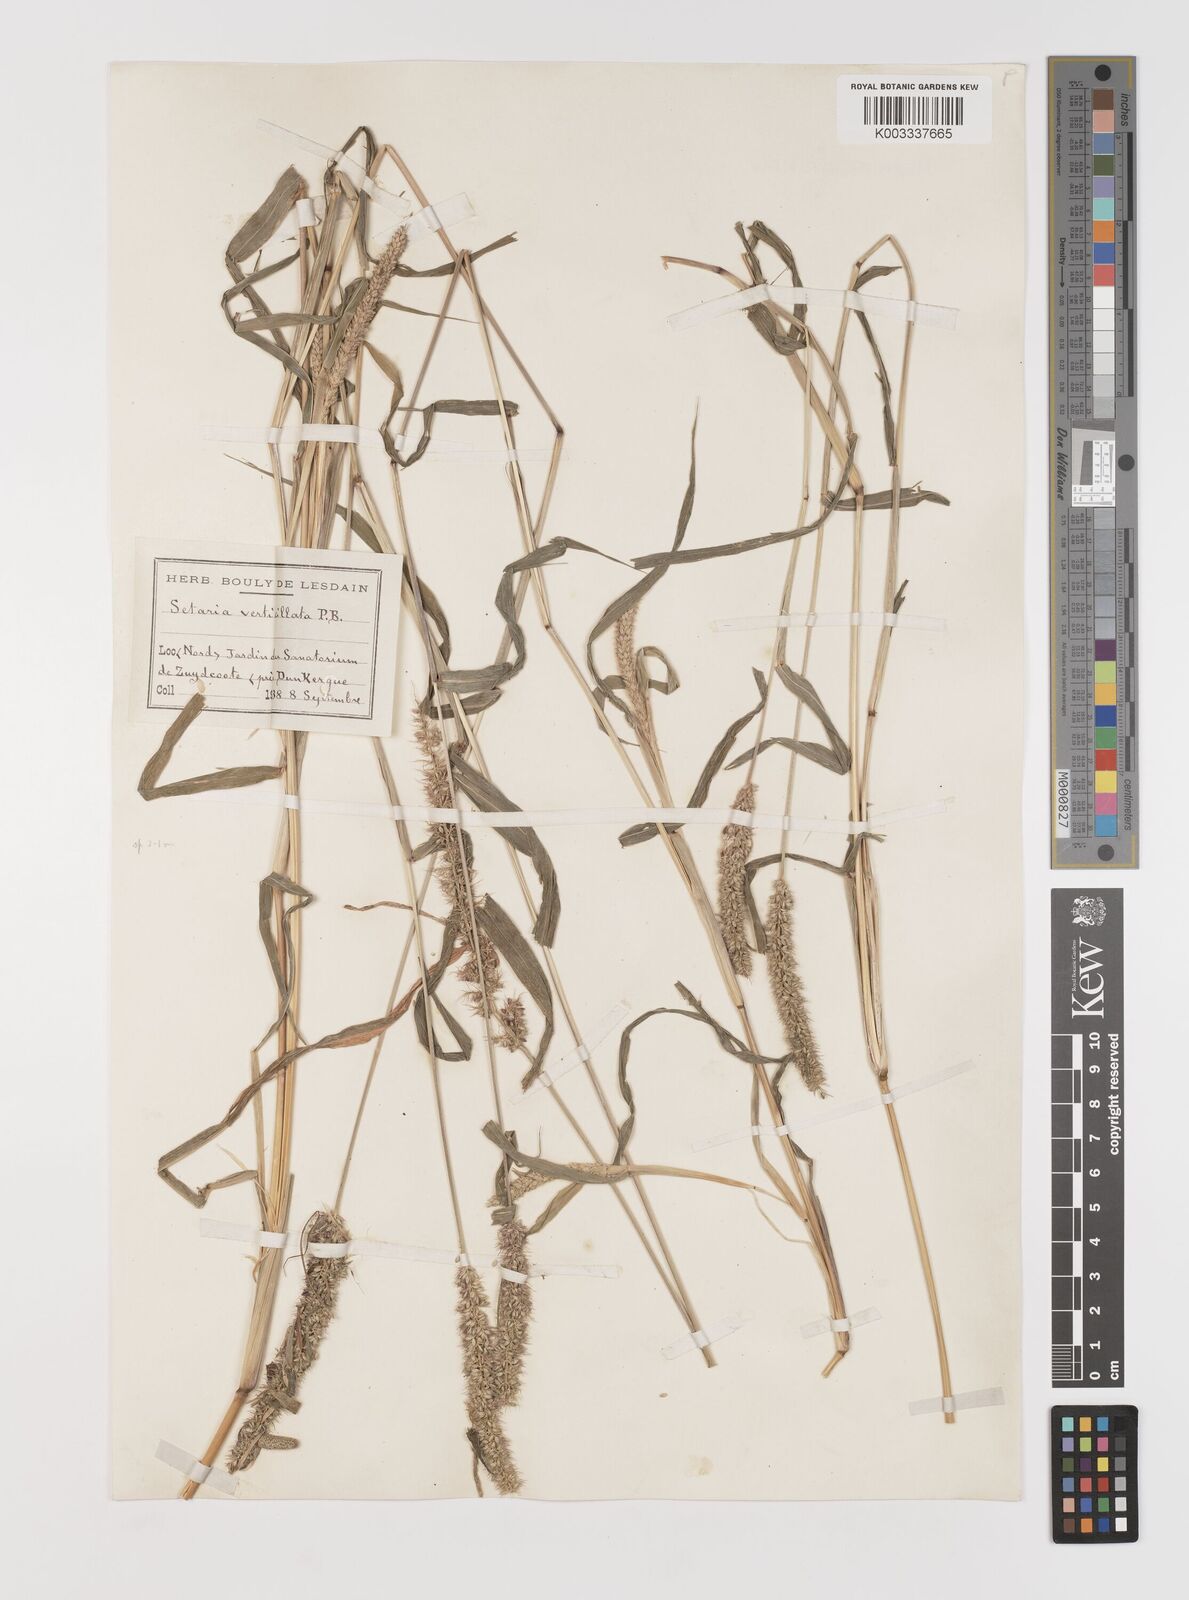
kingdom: Plantae
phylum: Tracheophyta
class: Liliopsida
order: Poales
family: Poaceae
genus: Setaria
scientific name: Setaria verticillata
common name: Hooked bristlegrass
